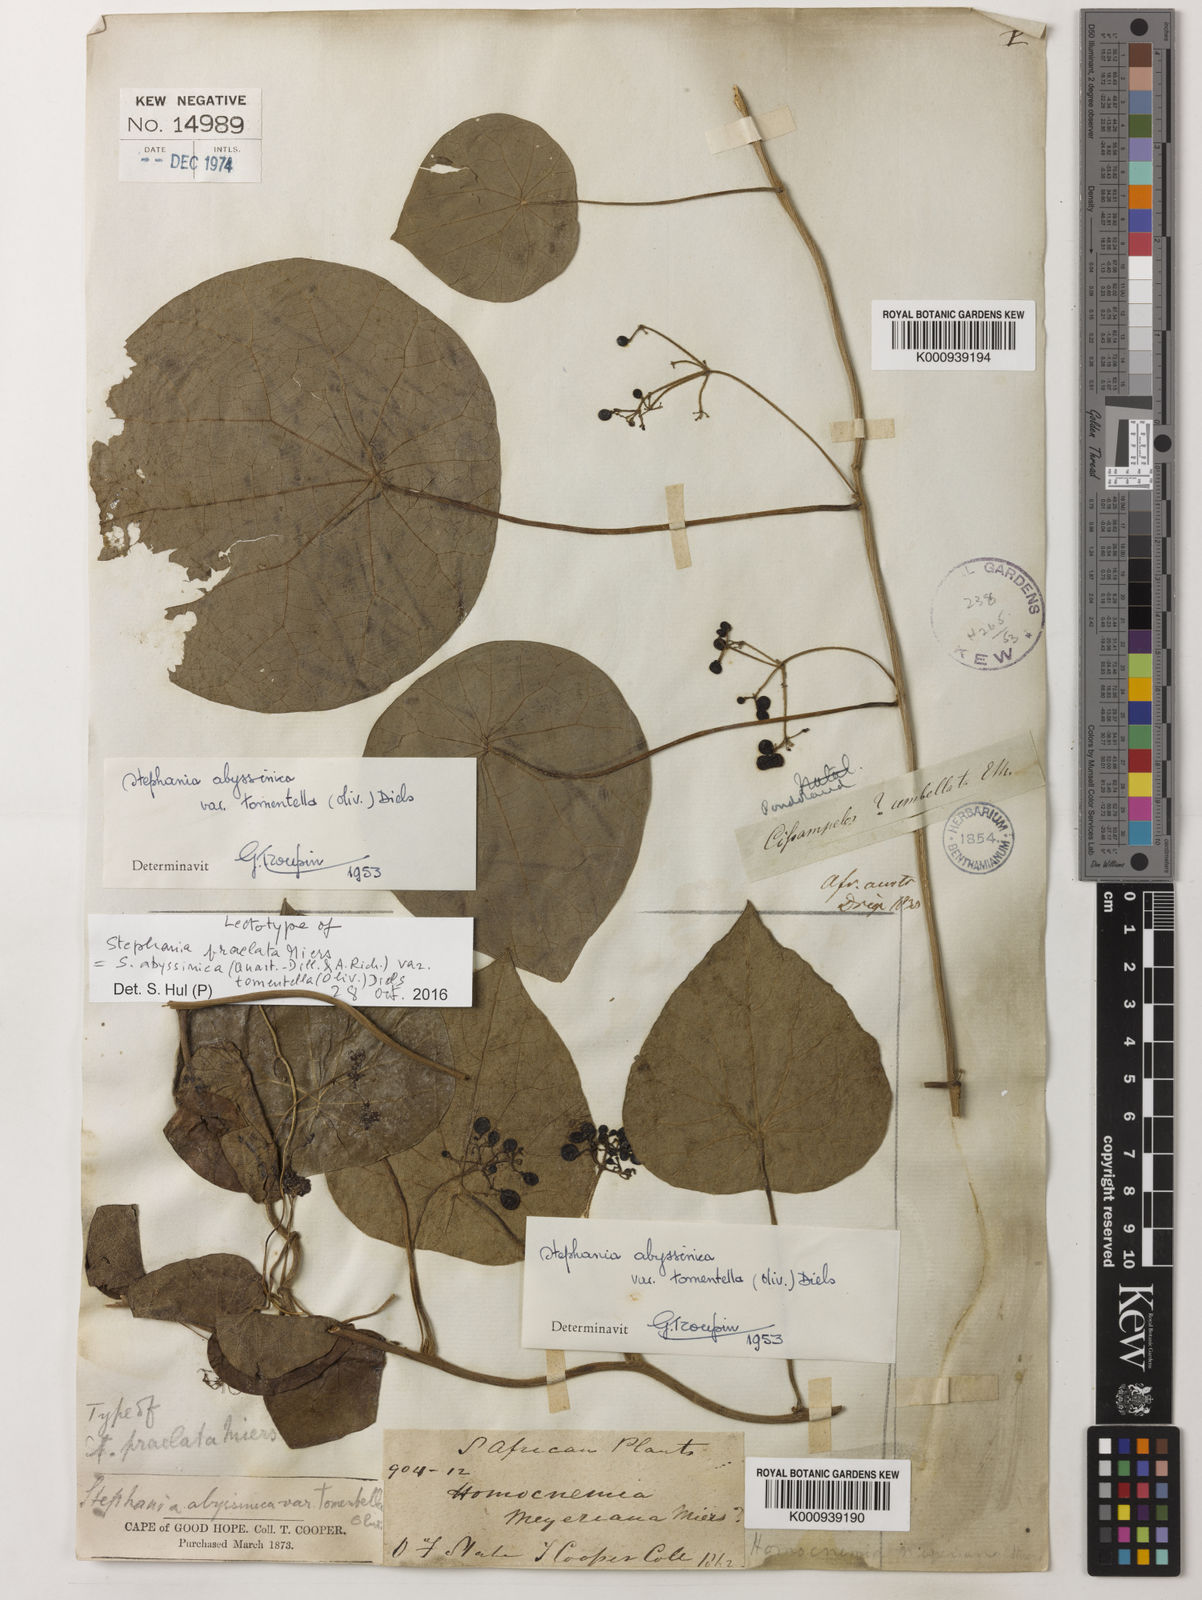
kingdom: Plantae
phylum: Tracheophyta
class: Magnoliopsida
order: Ranunculales
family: Menispermaceae
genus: Stephania
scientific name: Stephania
